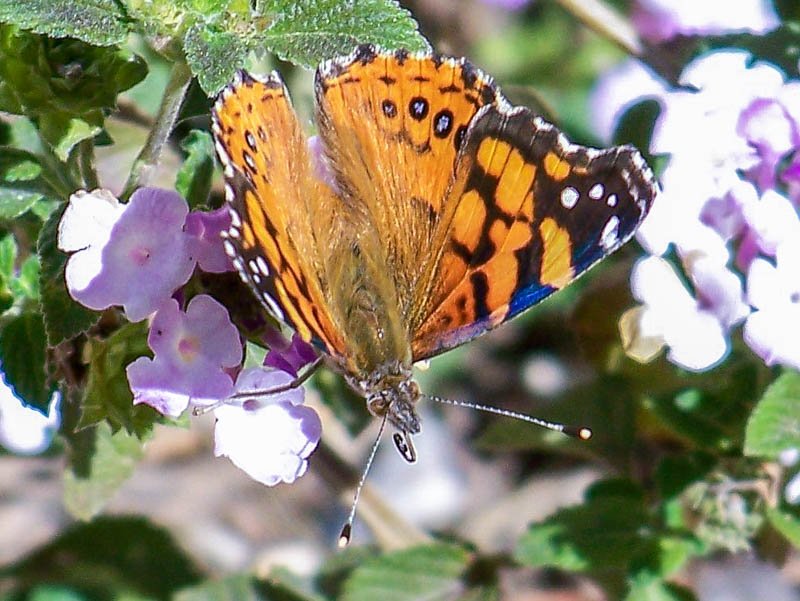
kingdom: Animalia
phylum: Arthropoda
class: Insecta
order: Lepidoptera
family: Nymphalidae
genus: Vanessa
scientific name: Vanessa annabella
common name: West Coast Lady
